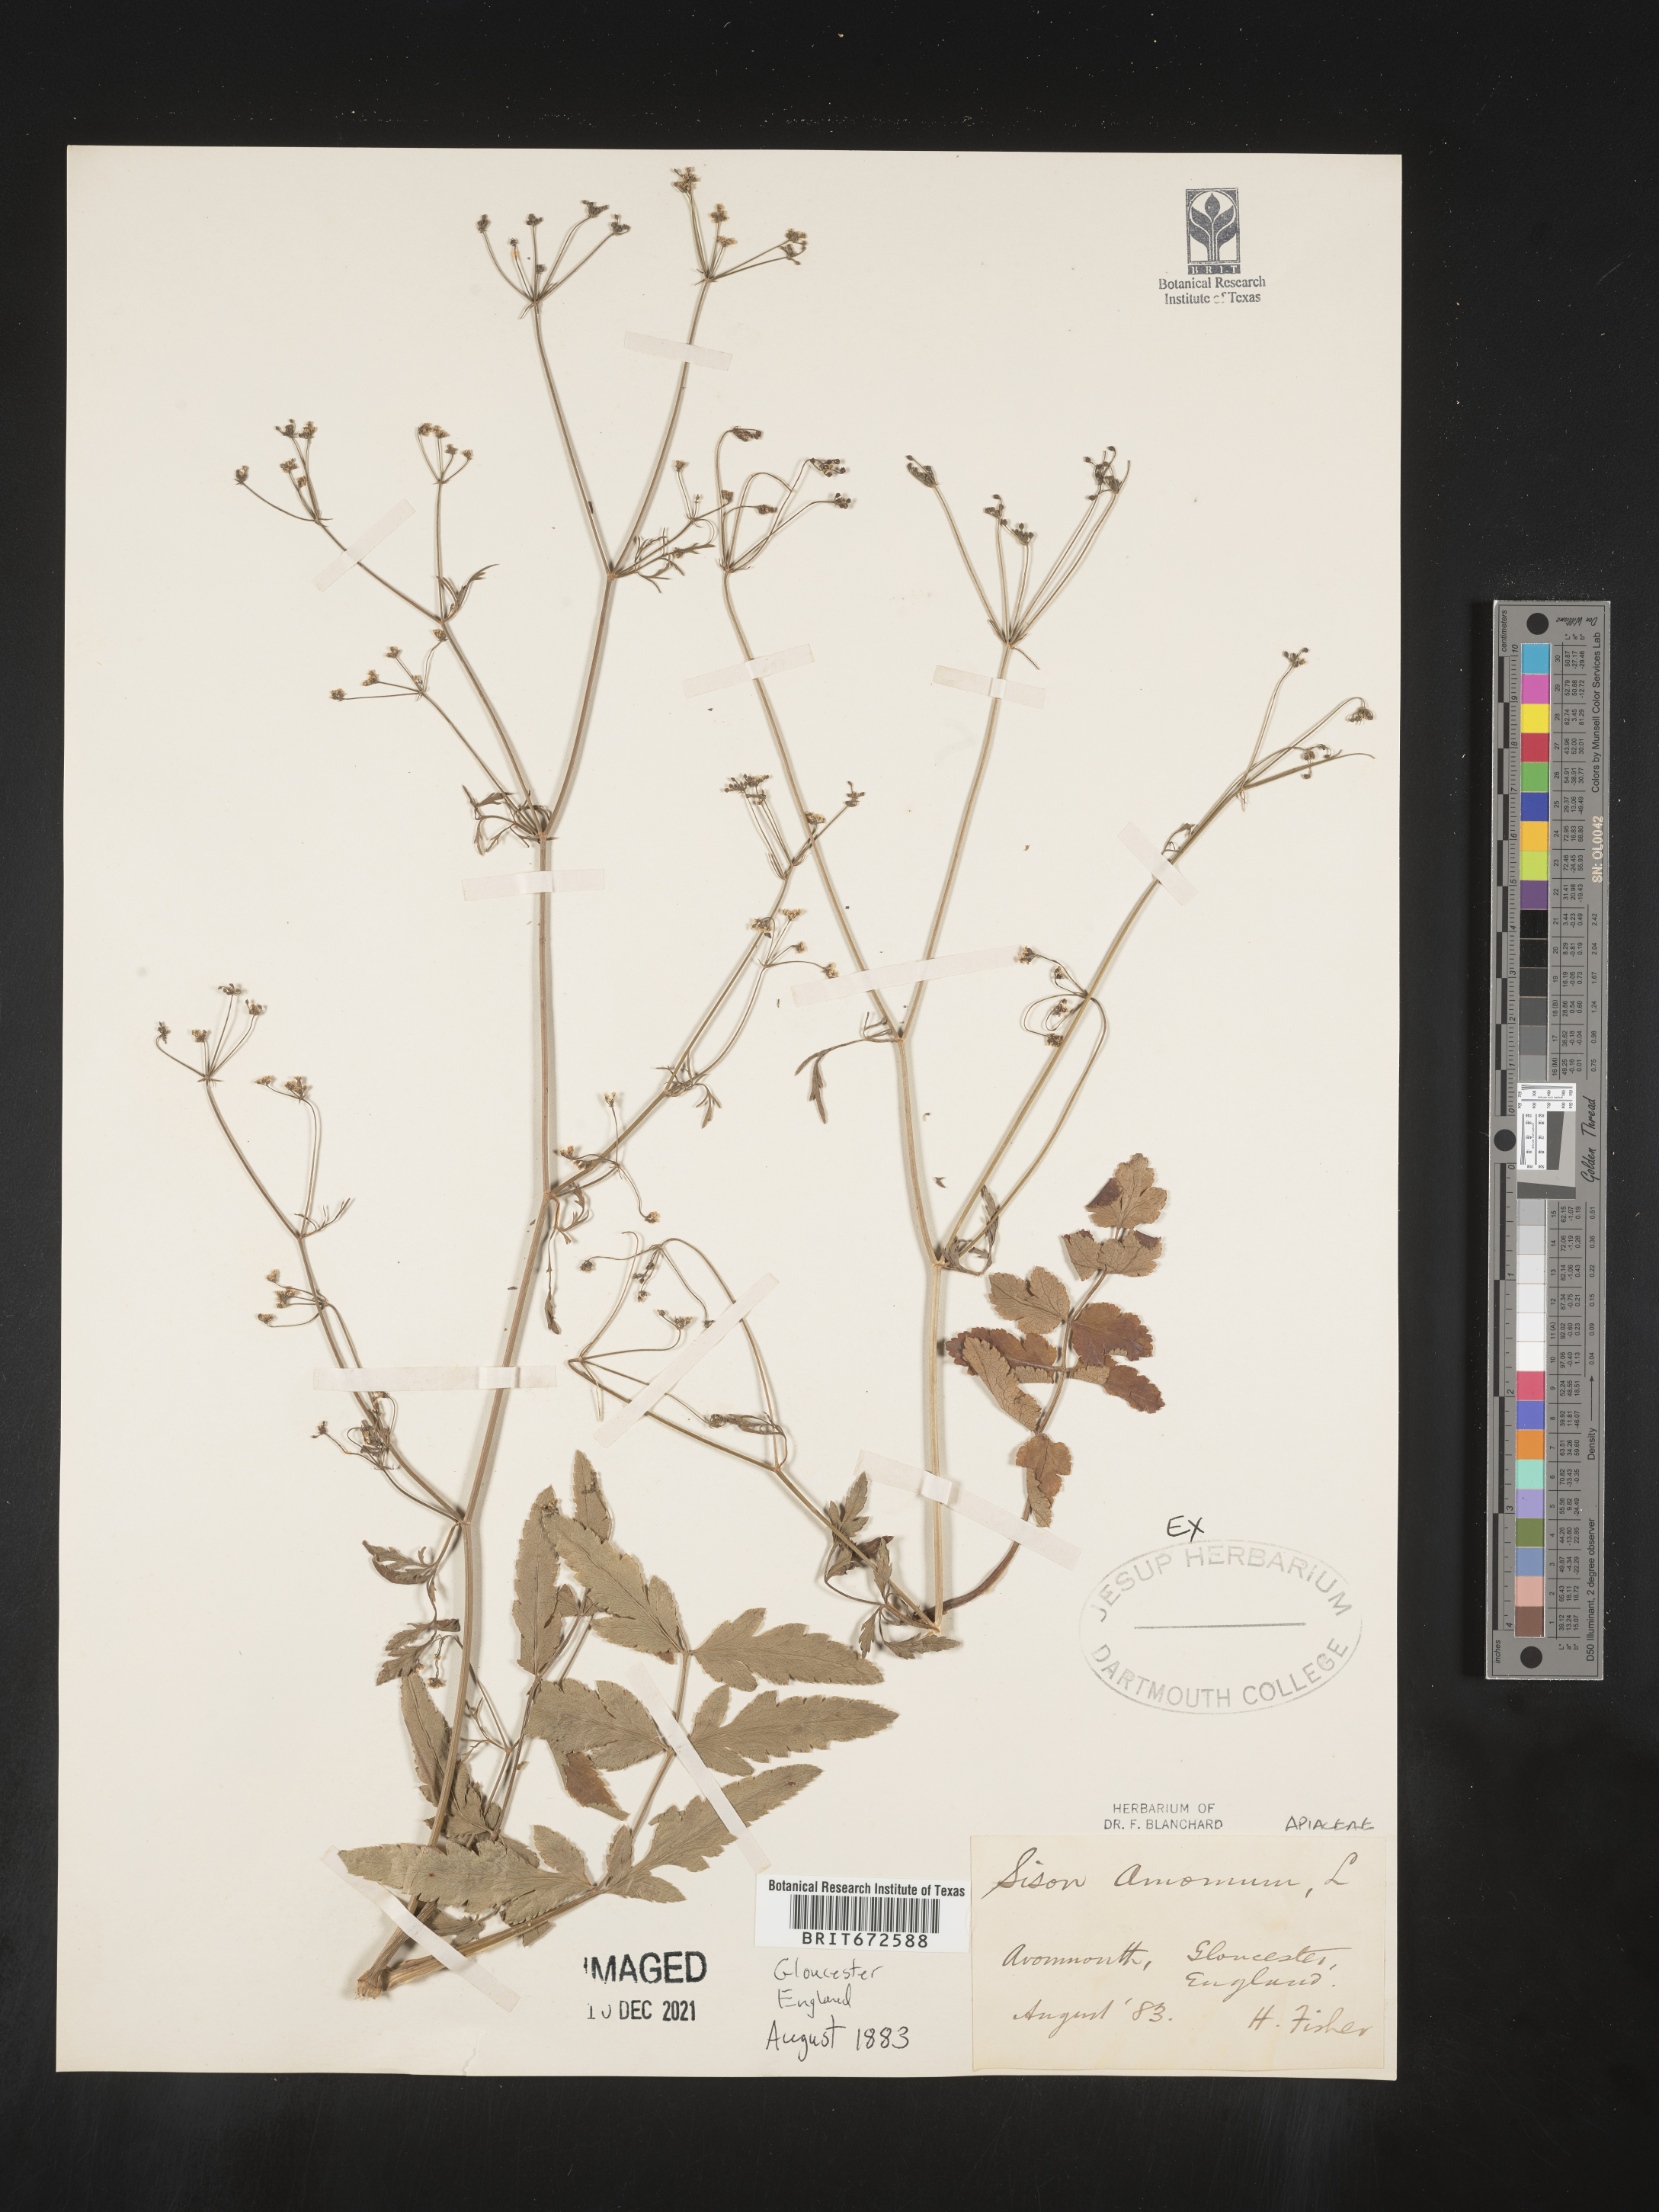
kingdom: Plantae
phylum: Tracheophyta
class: Magnoliopsida
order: Apiales
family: Apiaceae
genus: Sison
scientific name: Sison amomum
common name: Stone-parsley
